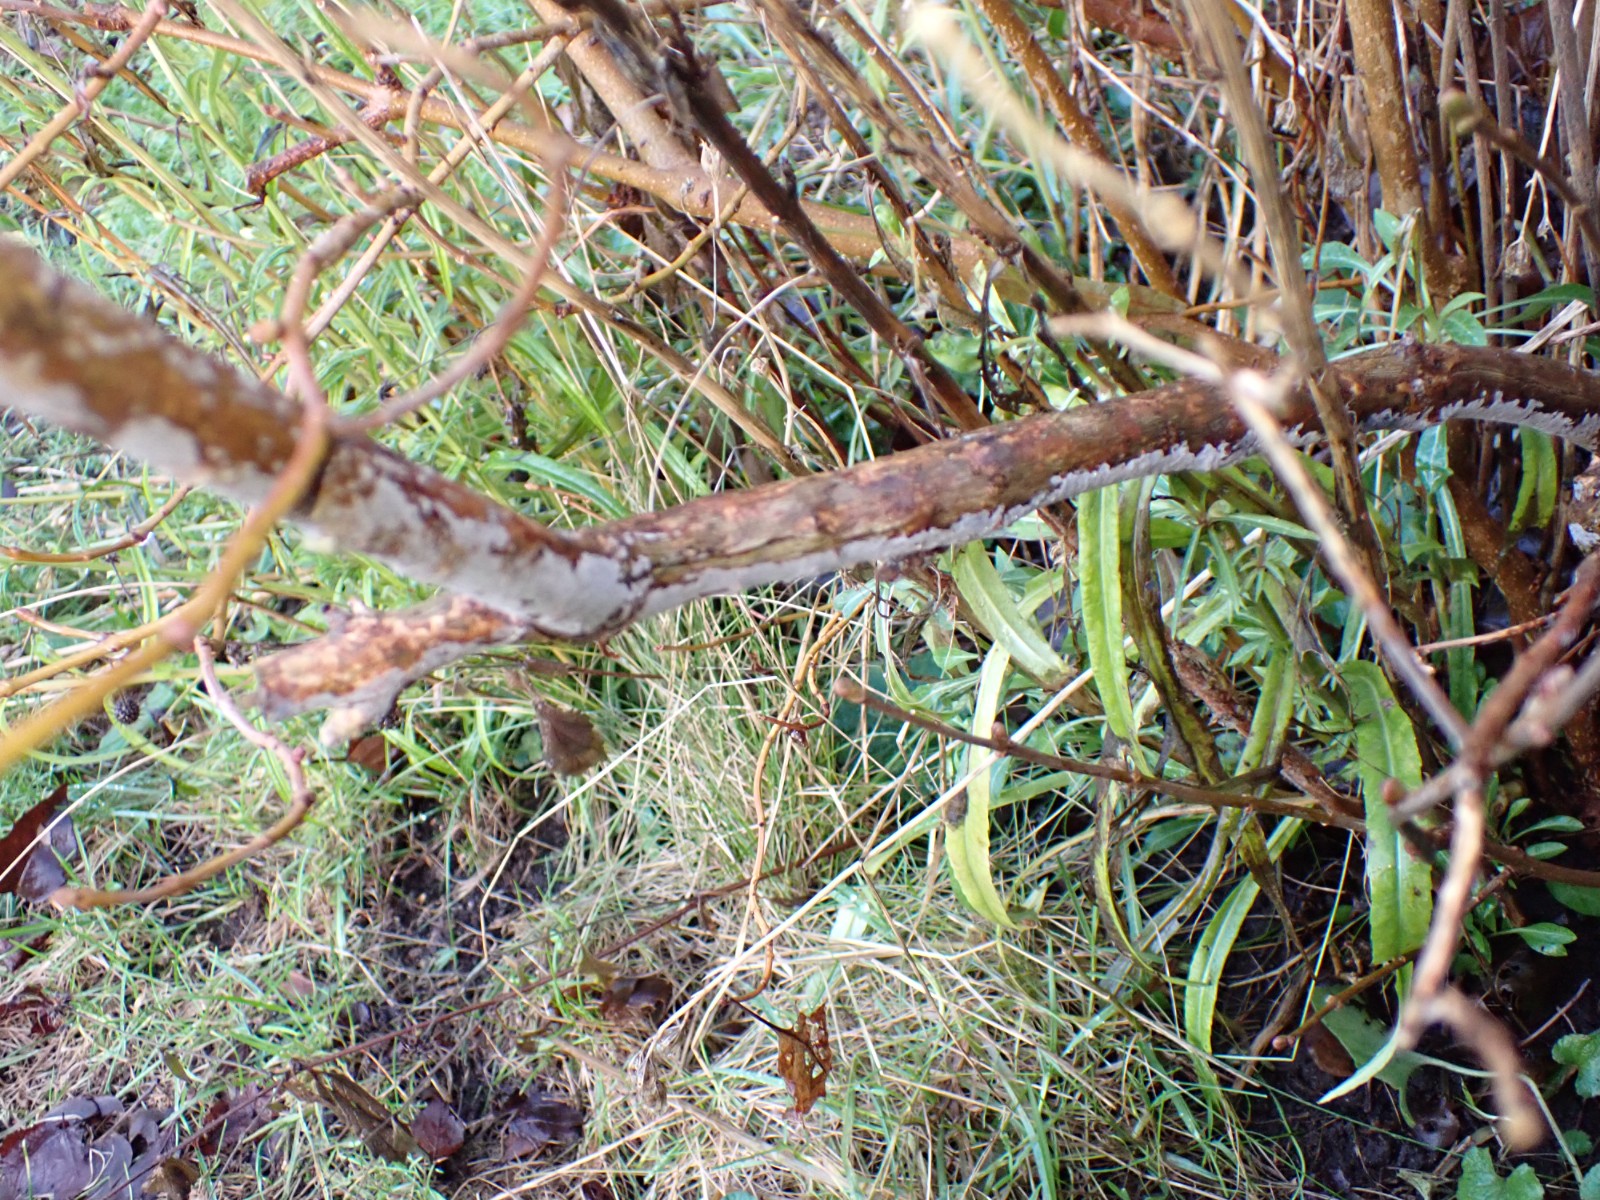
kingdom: Fungi
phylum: Basidiomycota
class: Agaricomycetes
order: Corticiales
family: Corticiaceae
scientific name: Corticiaceae
